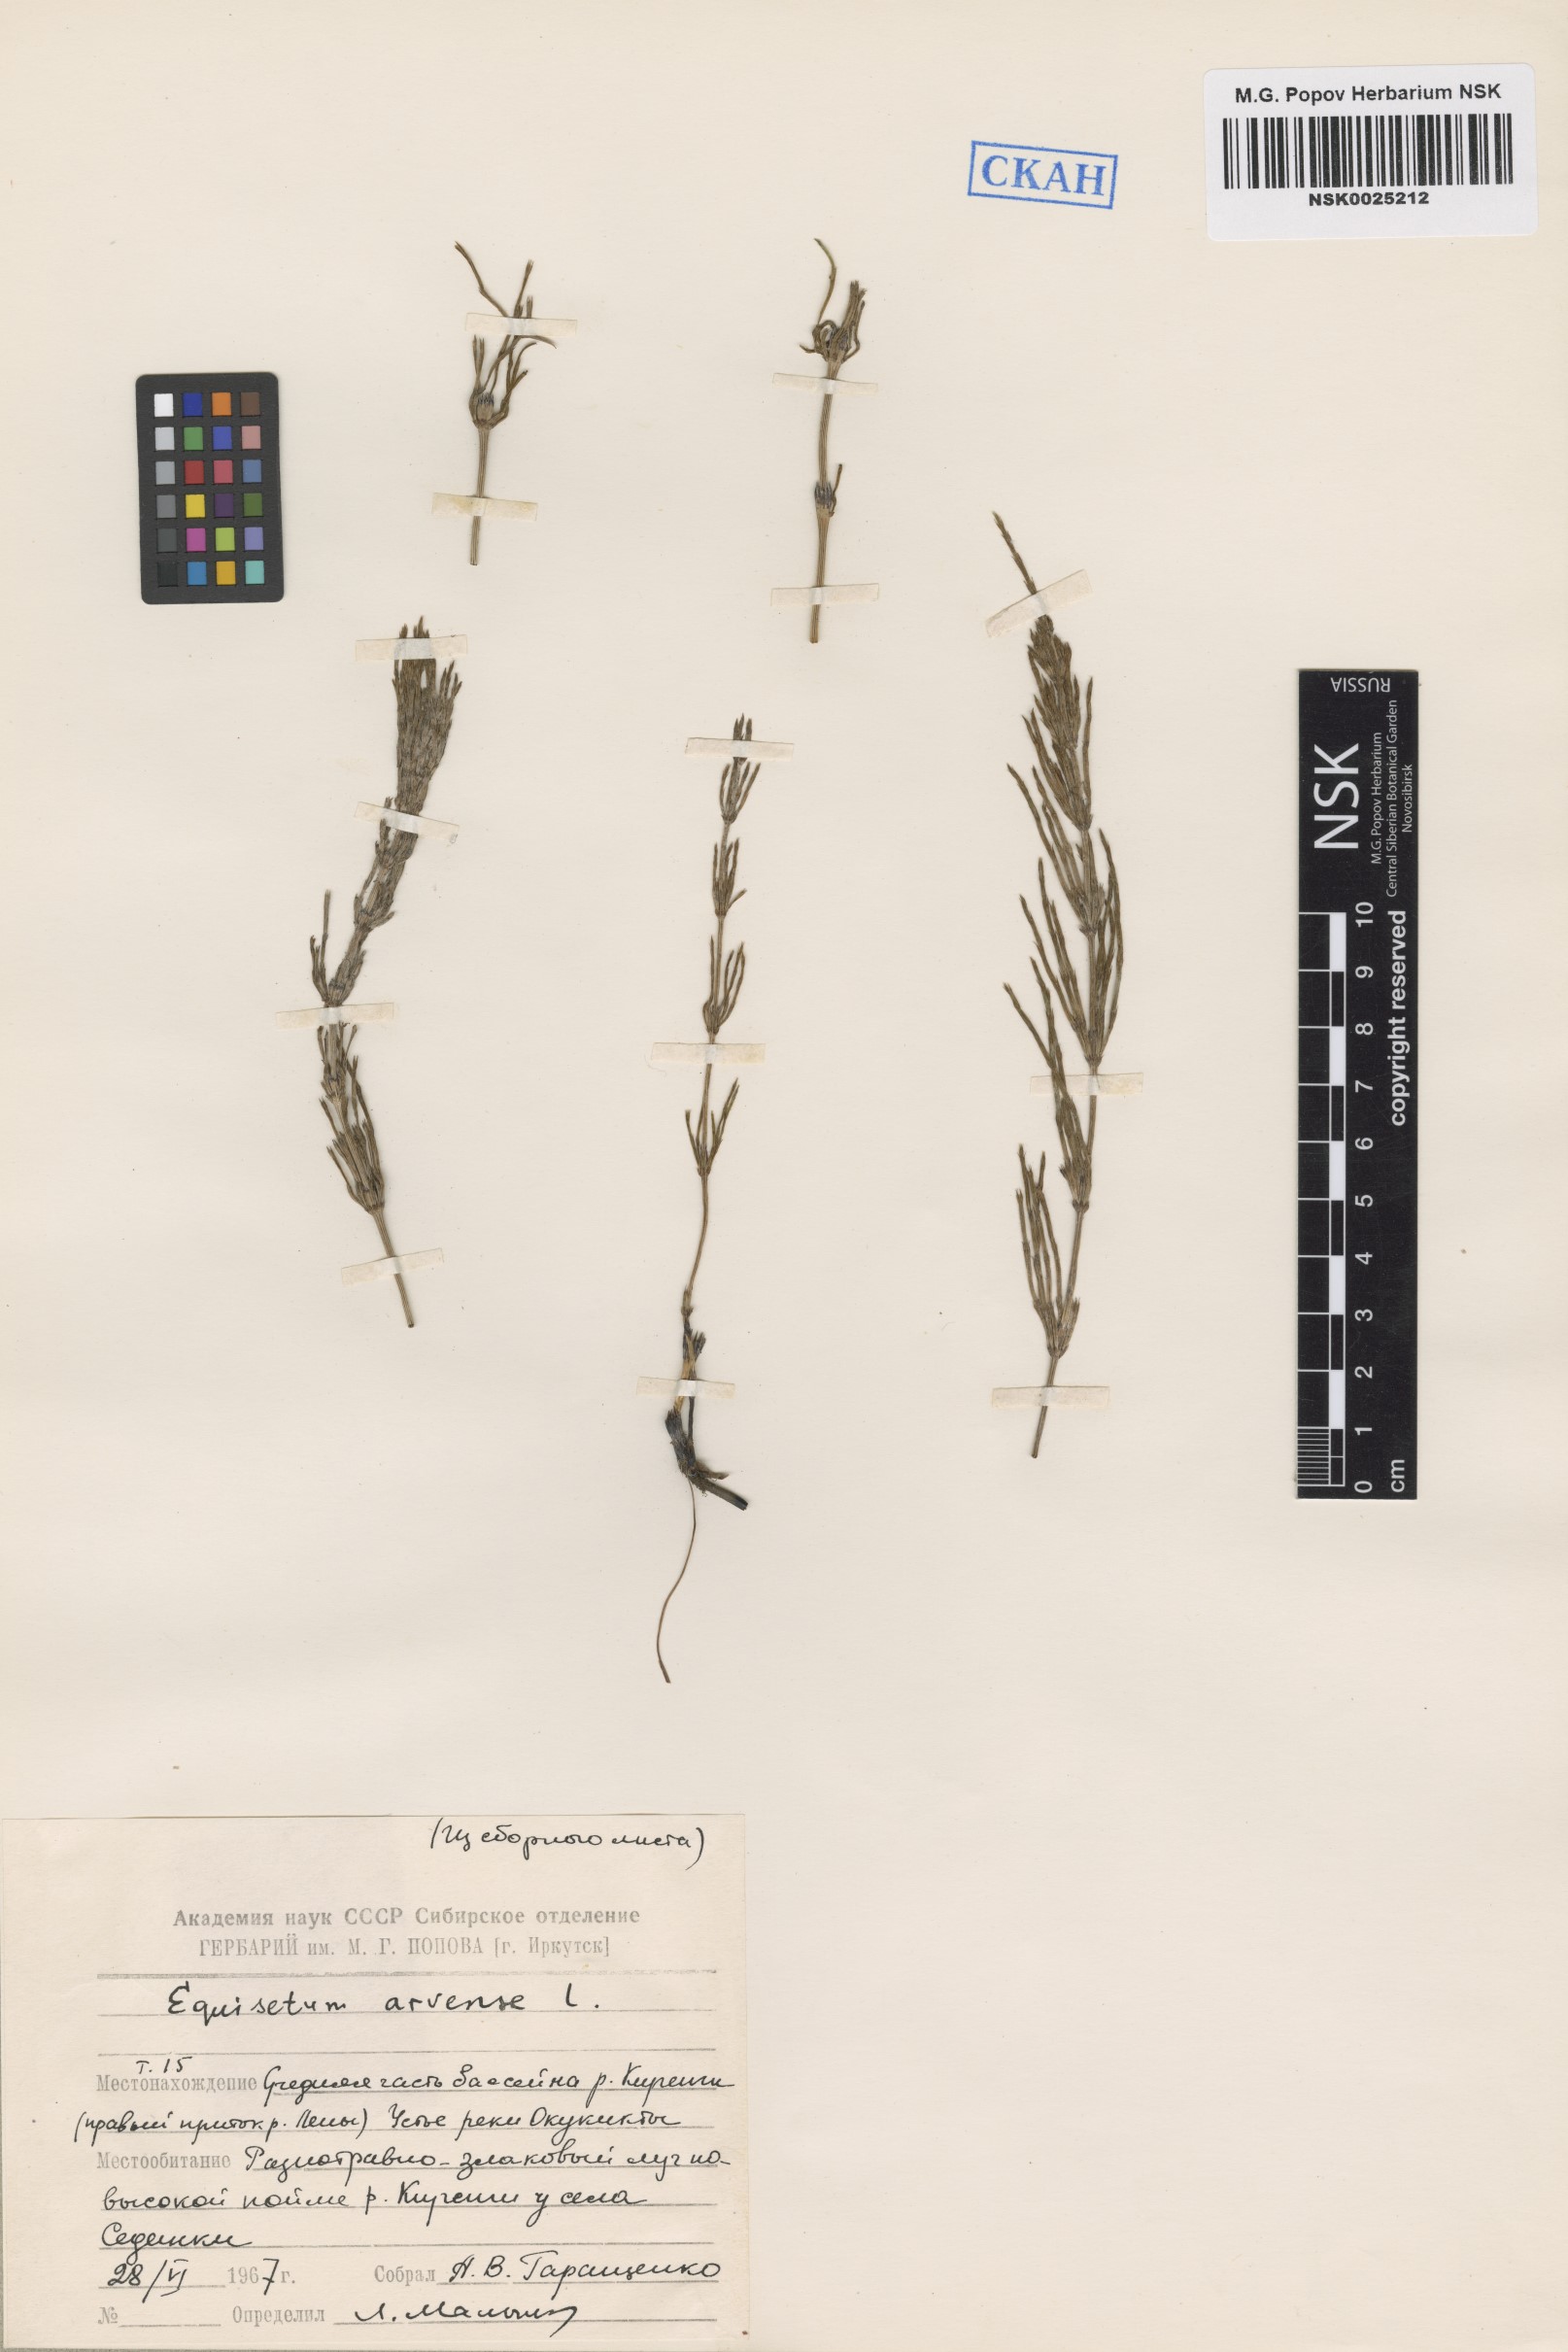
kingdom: Plantae
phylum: Tracheophyta
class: Polypodiopsida
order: Equisetales
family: Equisetaceae
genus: Equisetum
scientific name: Equisetum arvense
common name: Field horsetail
